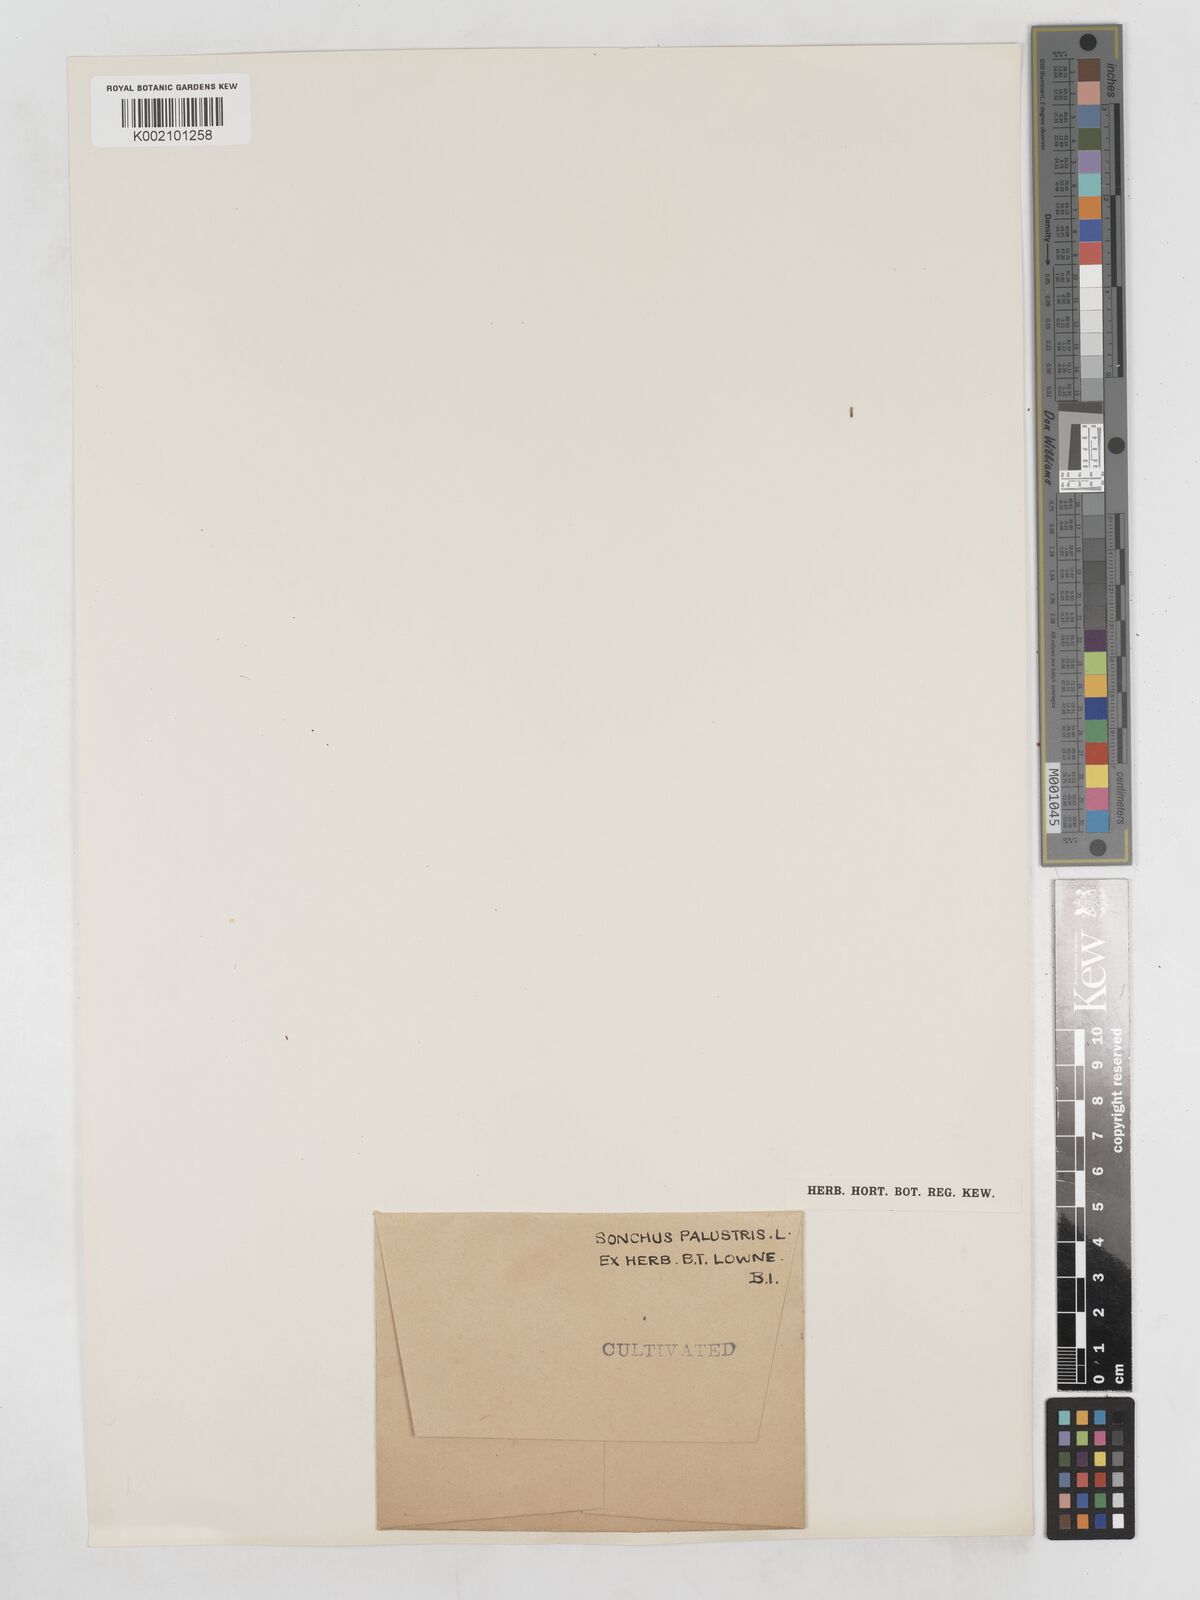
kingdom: Plantae
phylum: Tracheophyta
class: Magnoliopsida
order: Asterales
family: Asteraceae
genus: Sonchus
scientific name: Sonchus palustris
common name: Marsh sow-thistle
